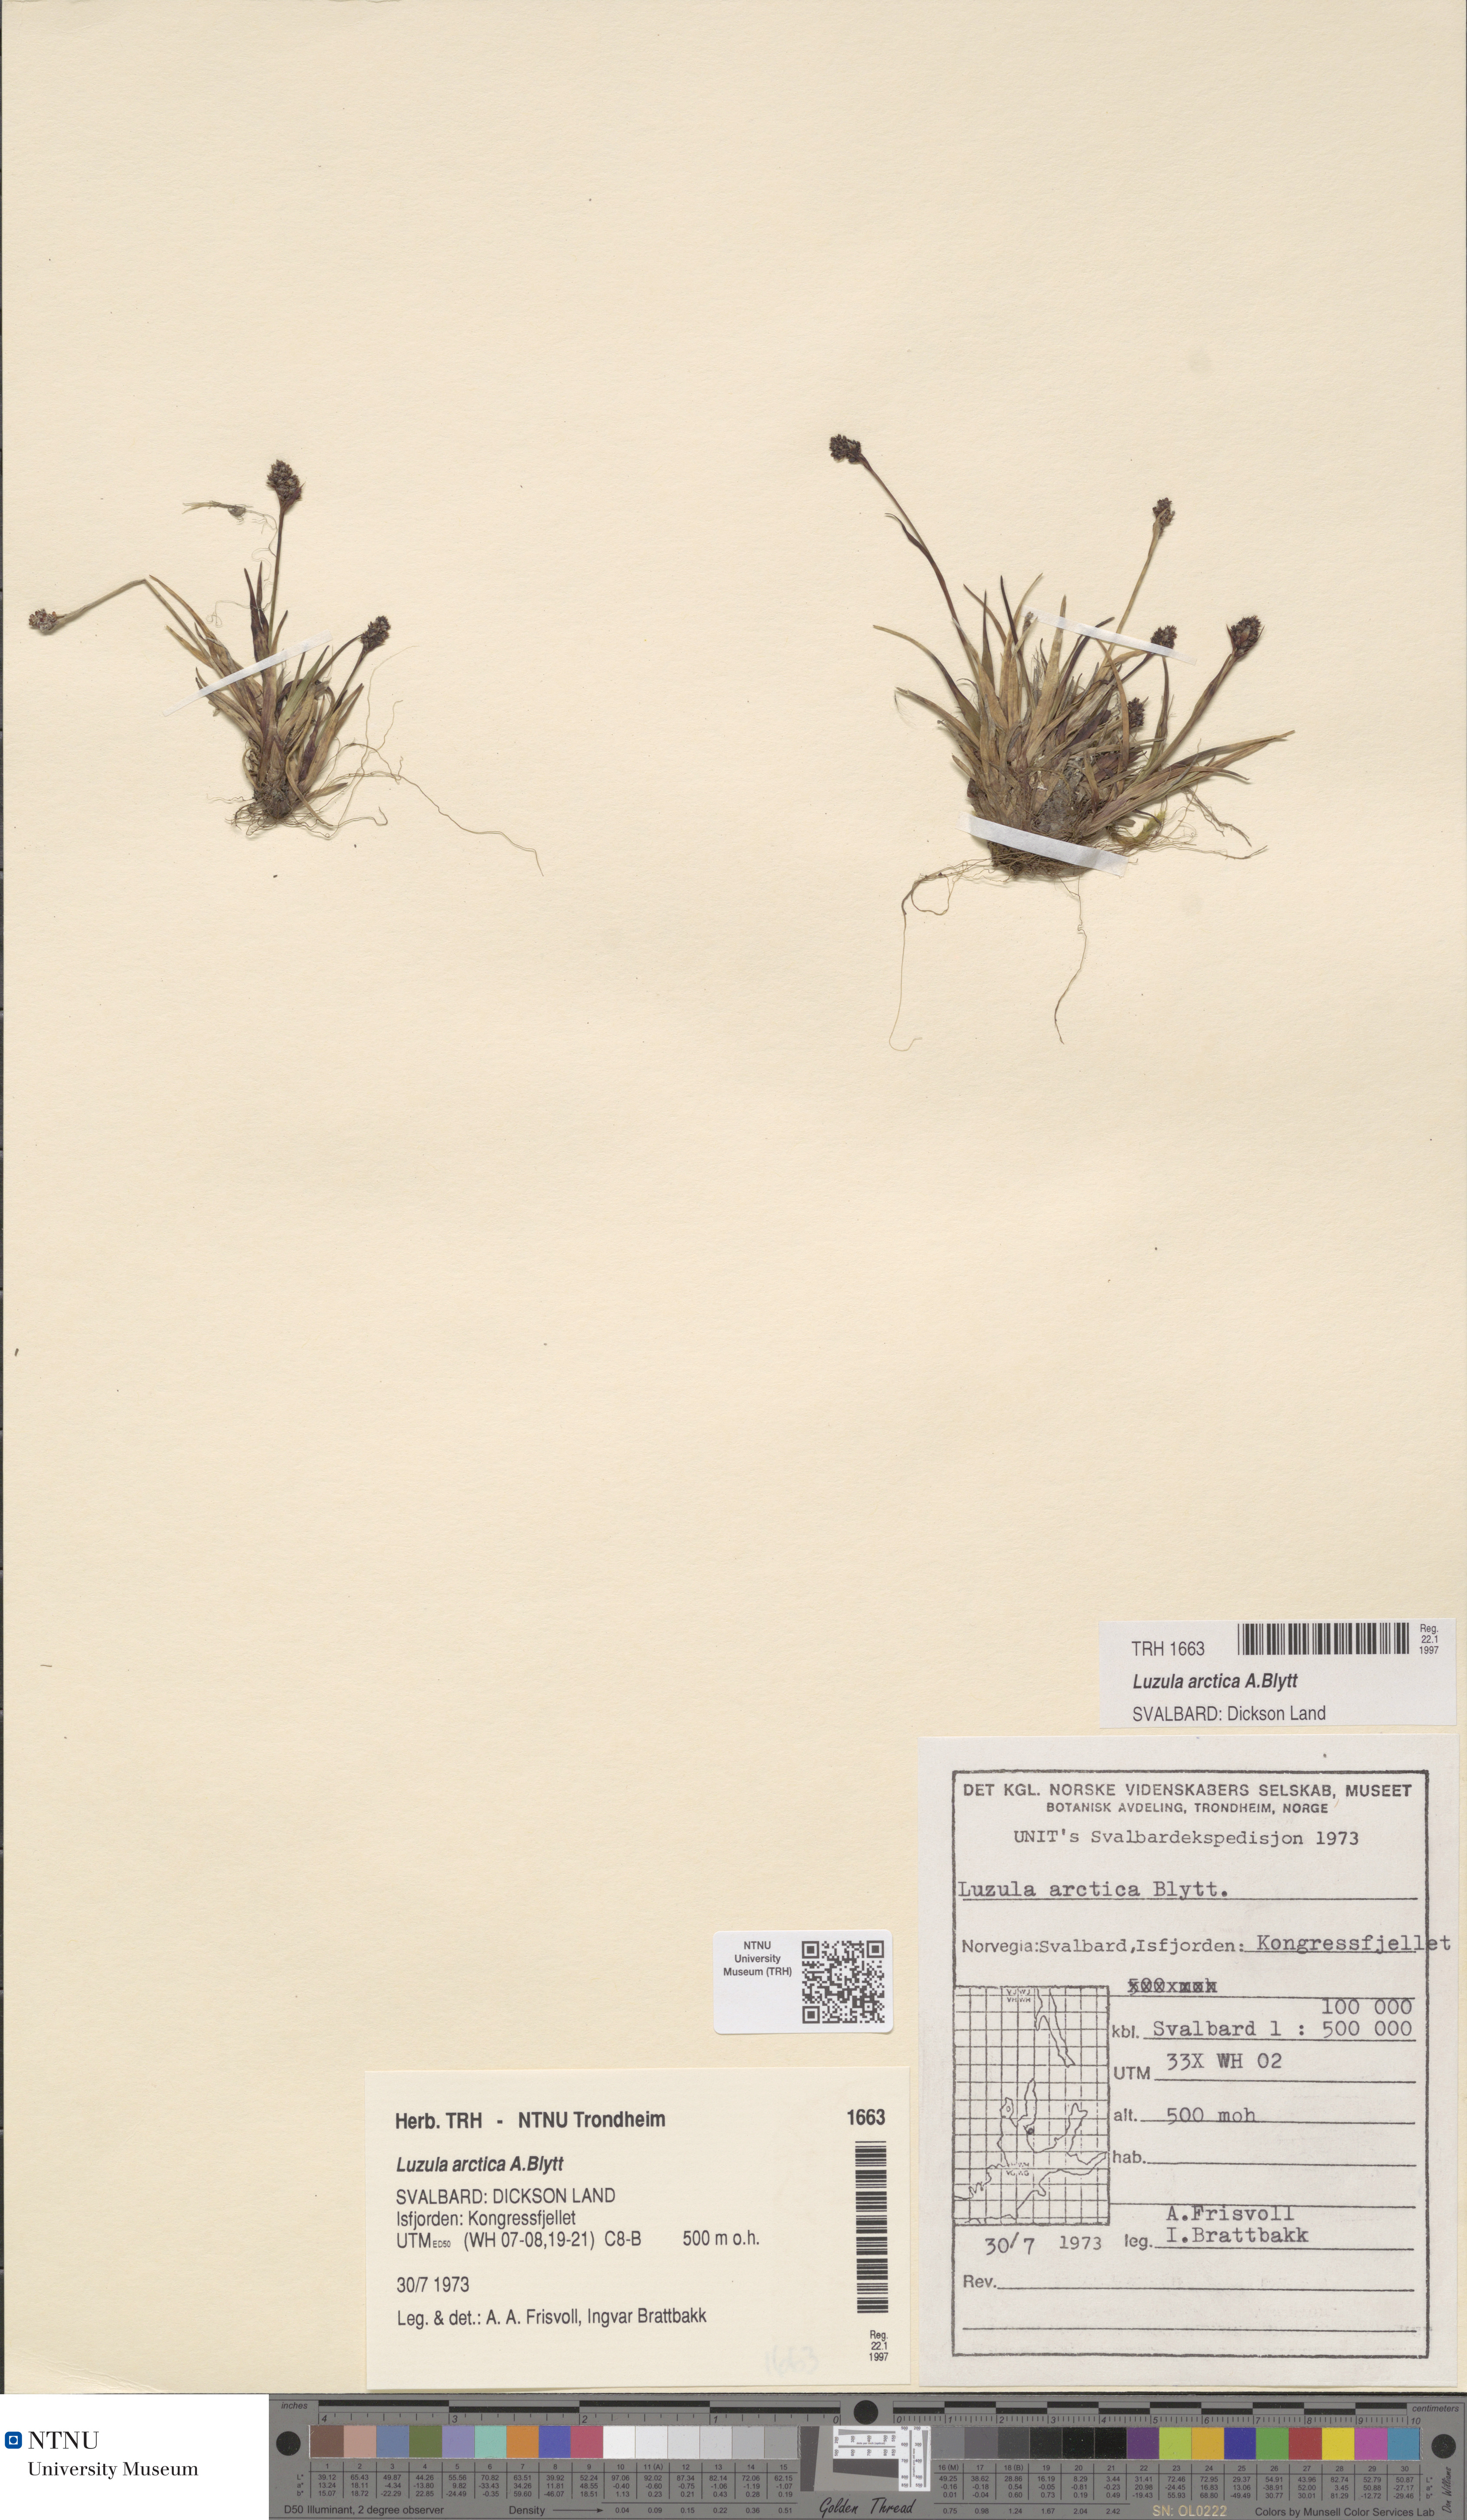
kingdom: Plantae
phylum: Tracheophyta
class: Liliopsida
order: Poales
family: Juncaceae
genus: Luzula
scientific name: Luzula nivalis
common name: Arctic woodrush
